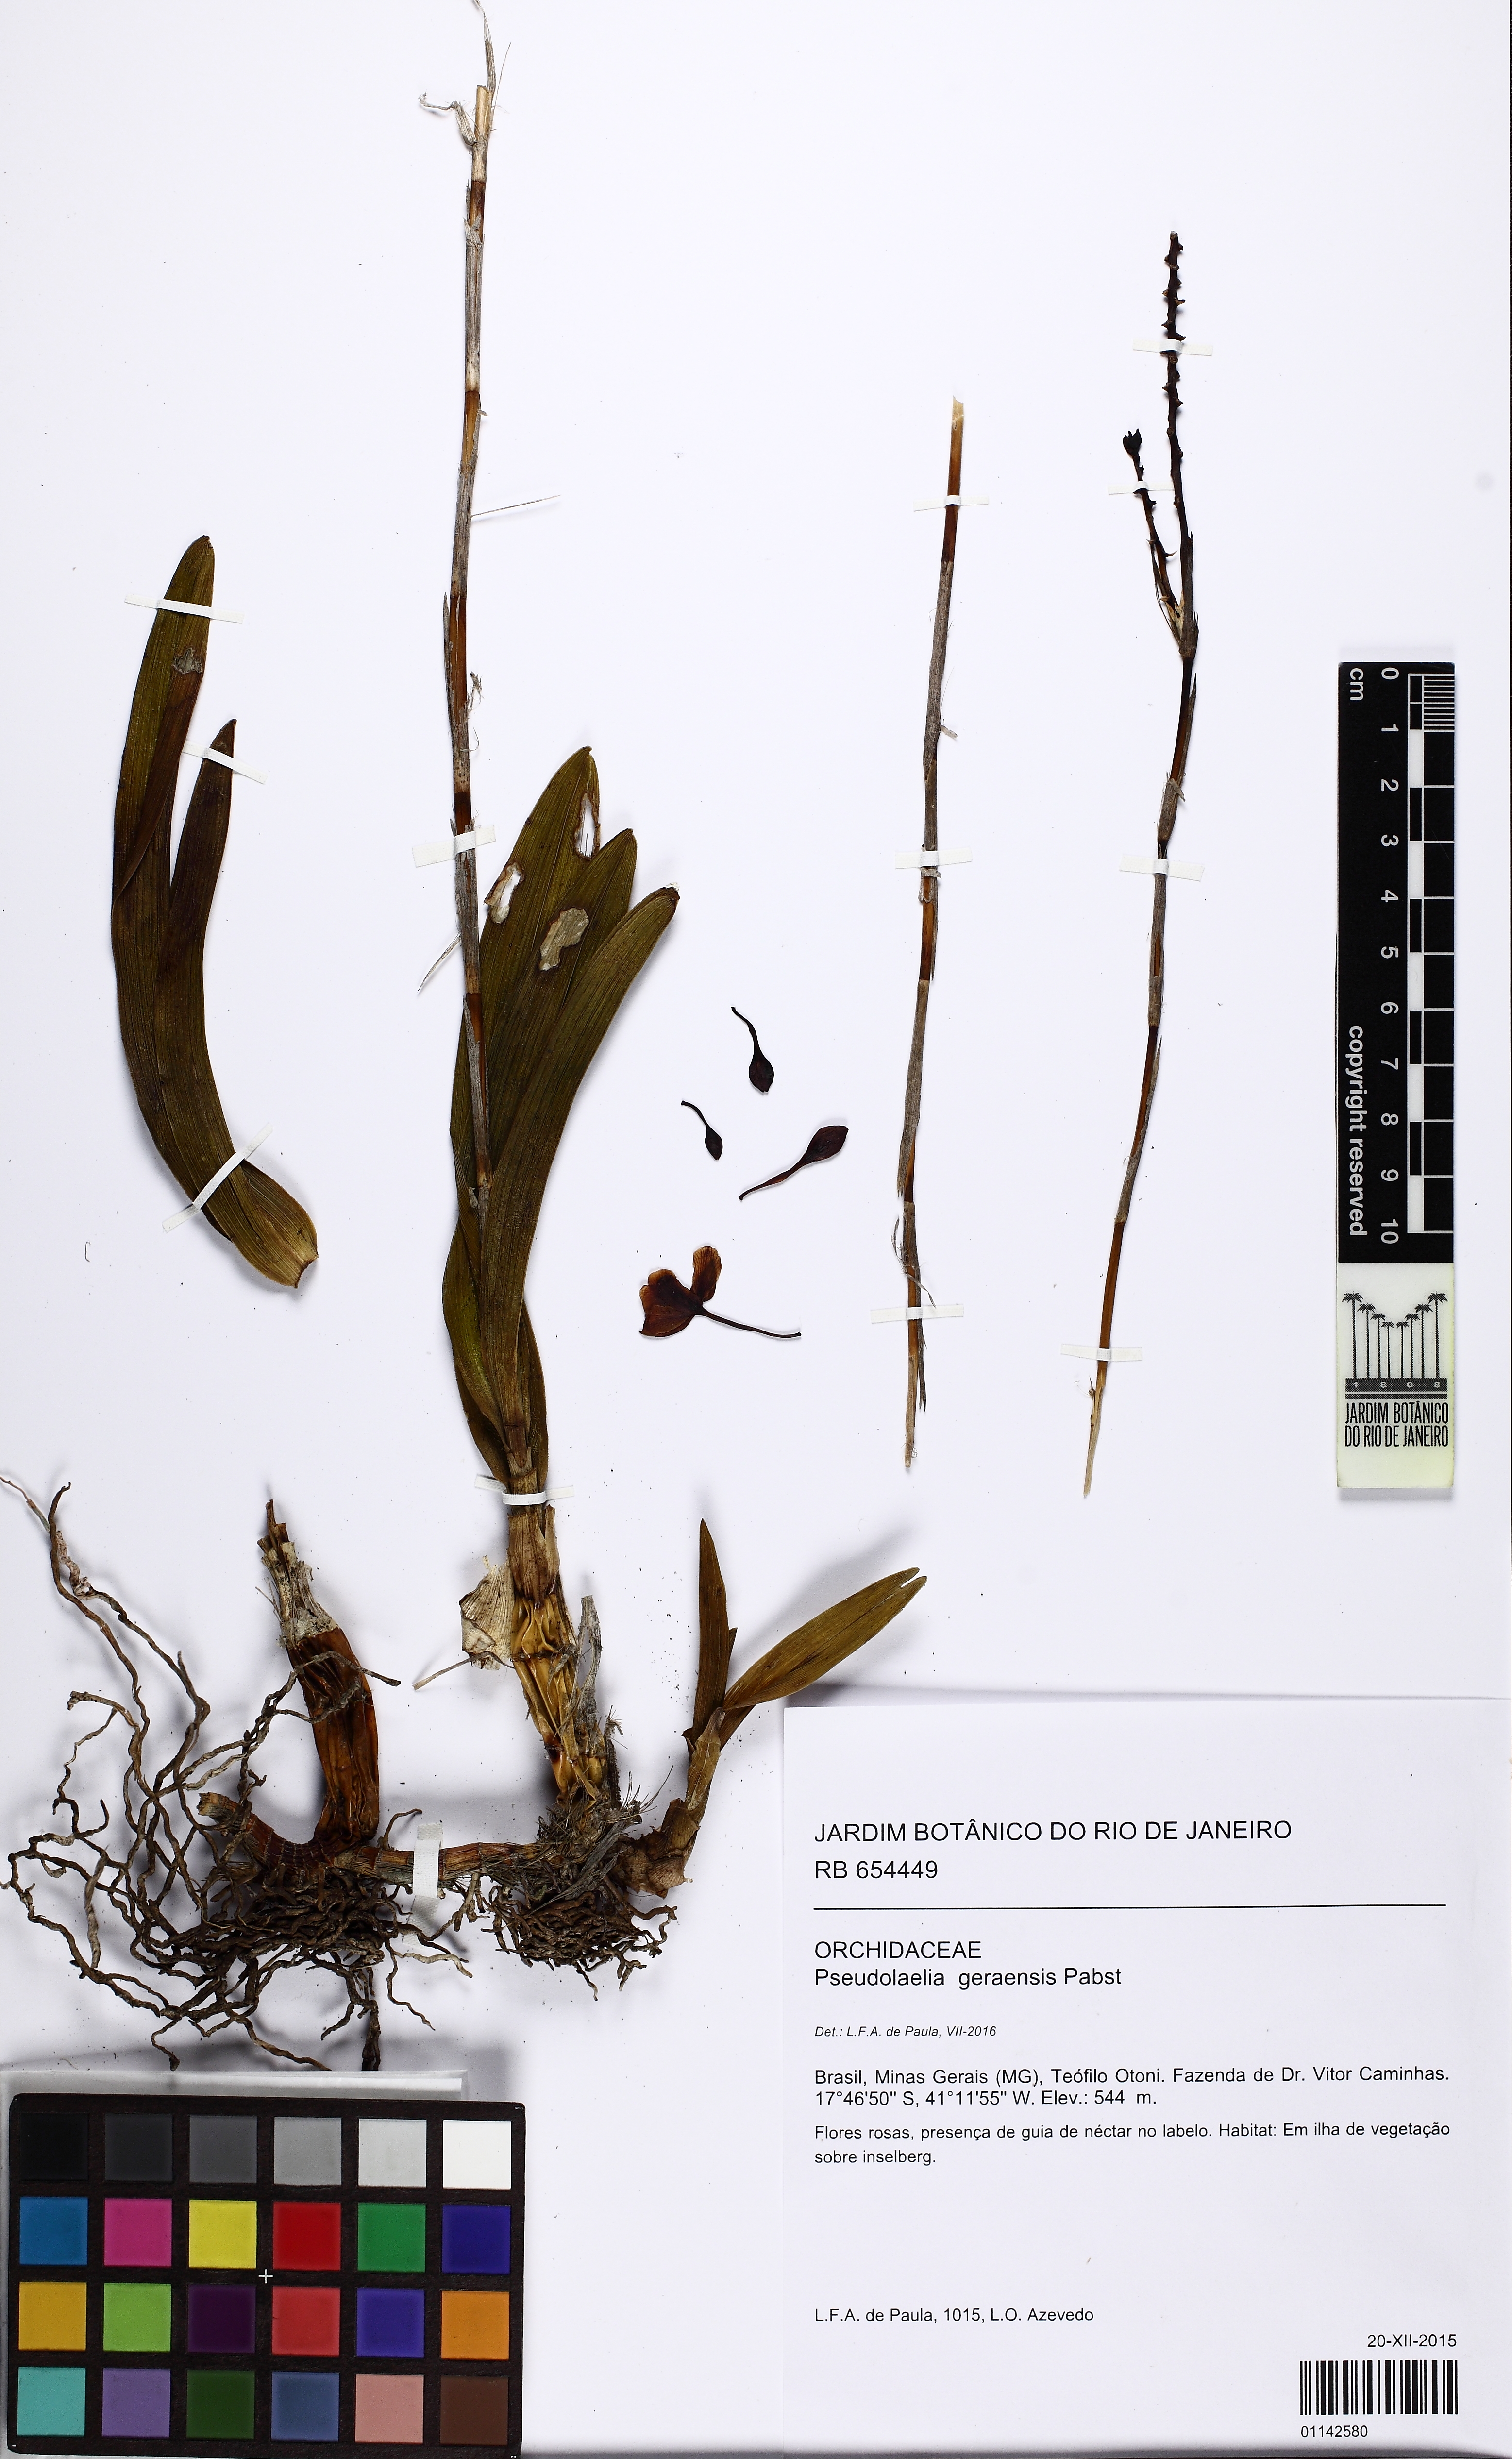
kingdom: Plantae
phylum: Tracheophyta
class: Liliopsida
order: Asparagales
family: Orchidaceae
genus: Pseudolaelia
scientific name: Pseudolaelia geraensis
